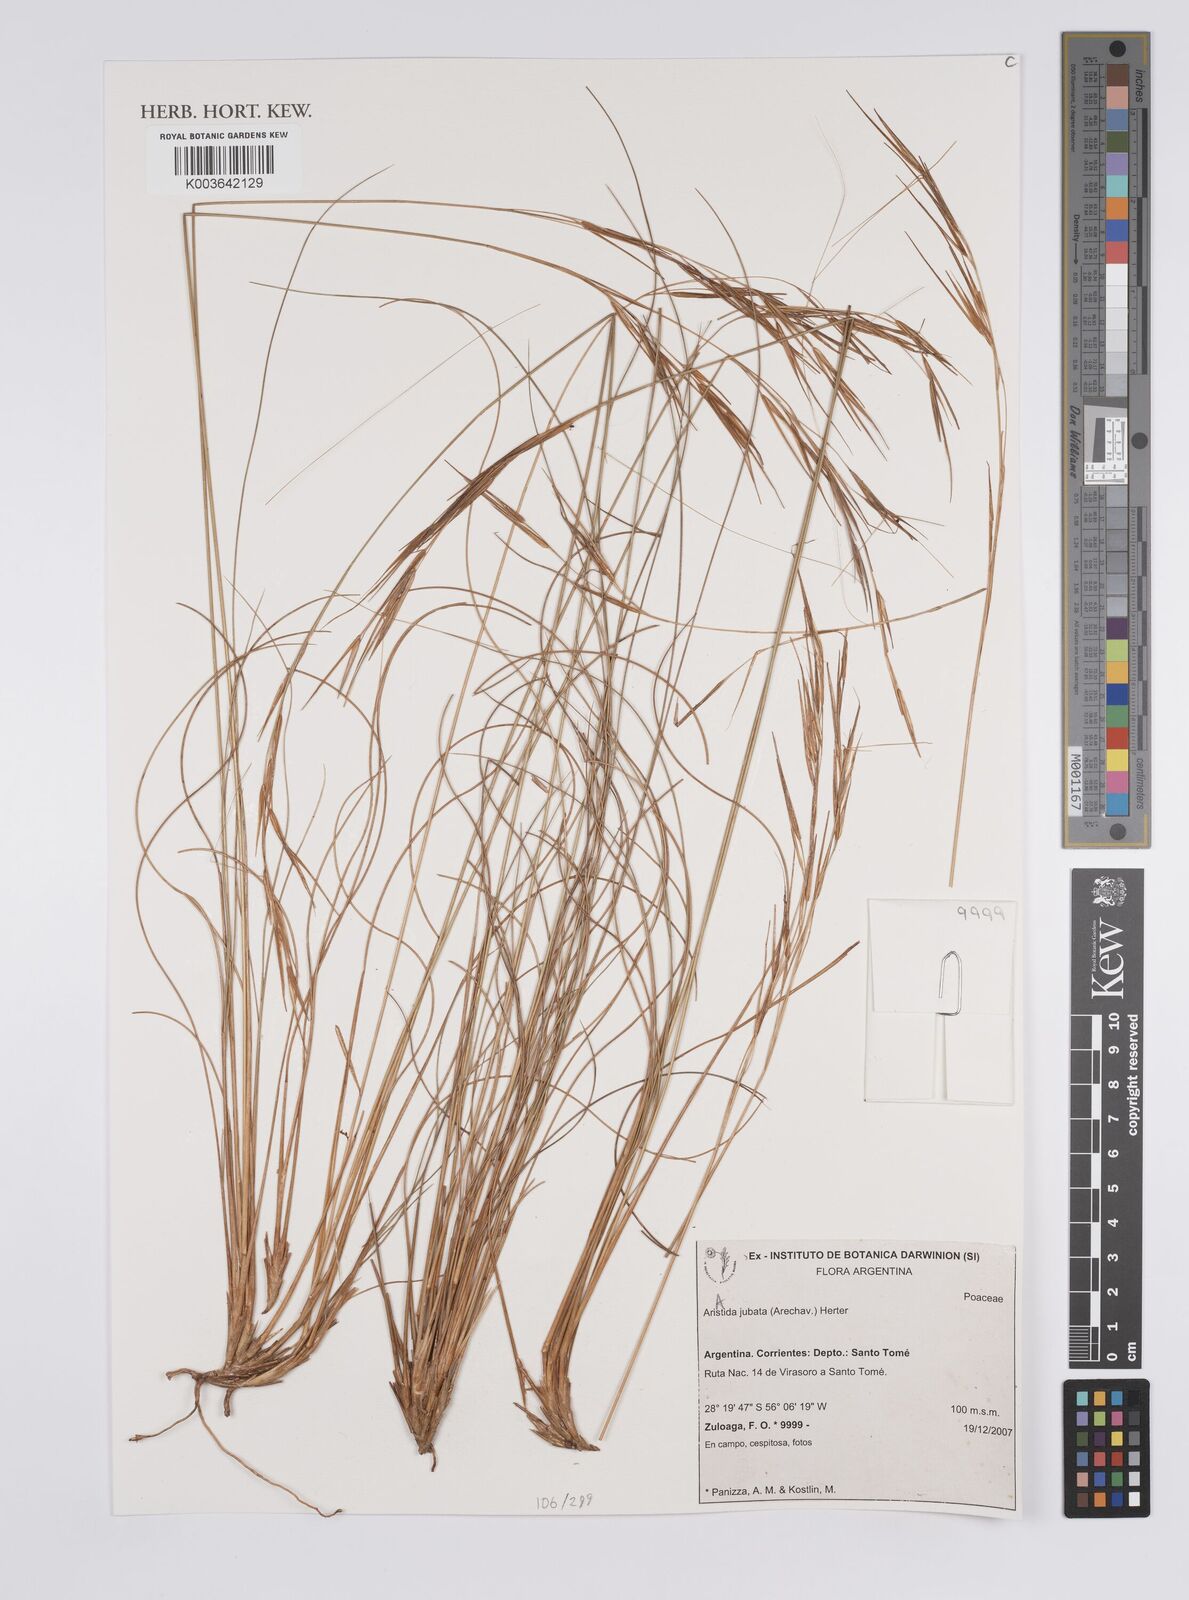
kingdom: Plantae
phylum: Tracheophyta
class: Liliopsida
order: Poales
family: Poaceae
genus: Aristida
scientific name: Aristida jubata
